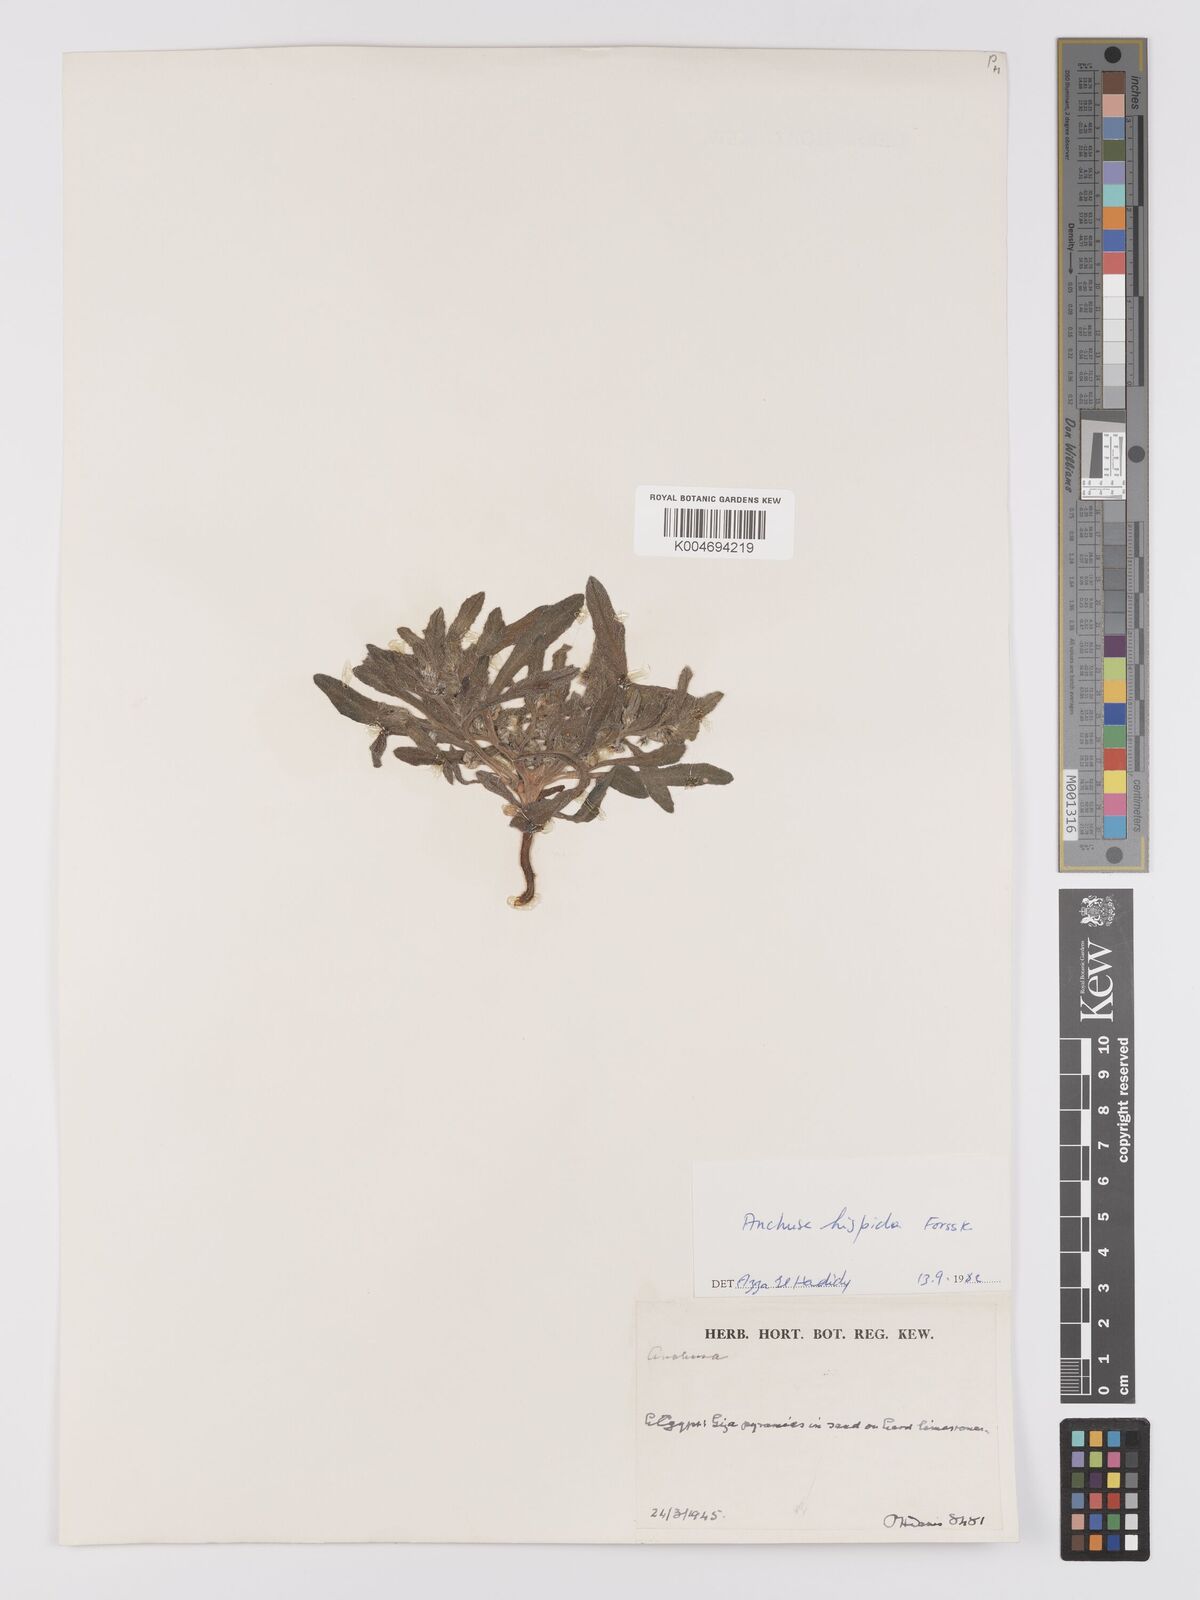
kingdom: Plantae
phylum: Tracheophyta
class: Magnoliopsida
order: Boraginales
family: Boraginaceae
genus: Gastrocotyle
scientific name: Gastrocotyle hispida
